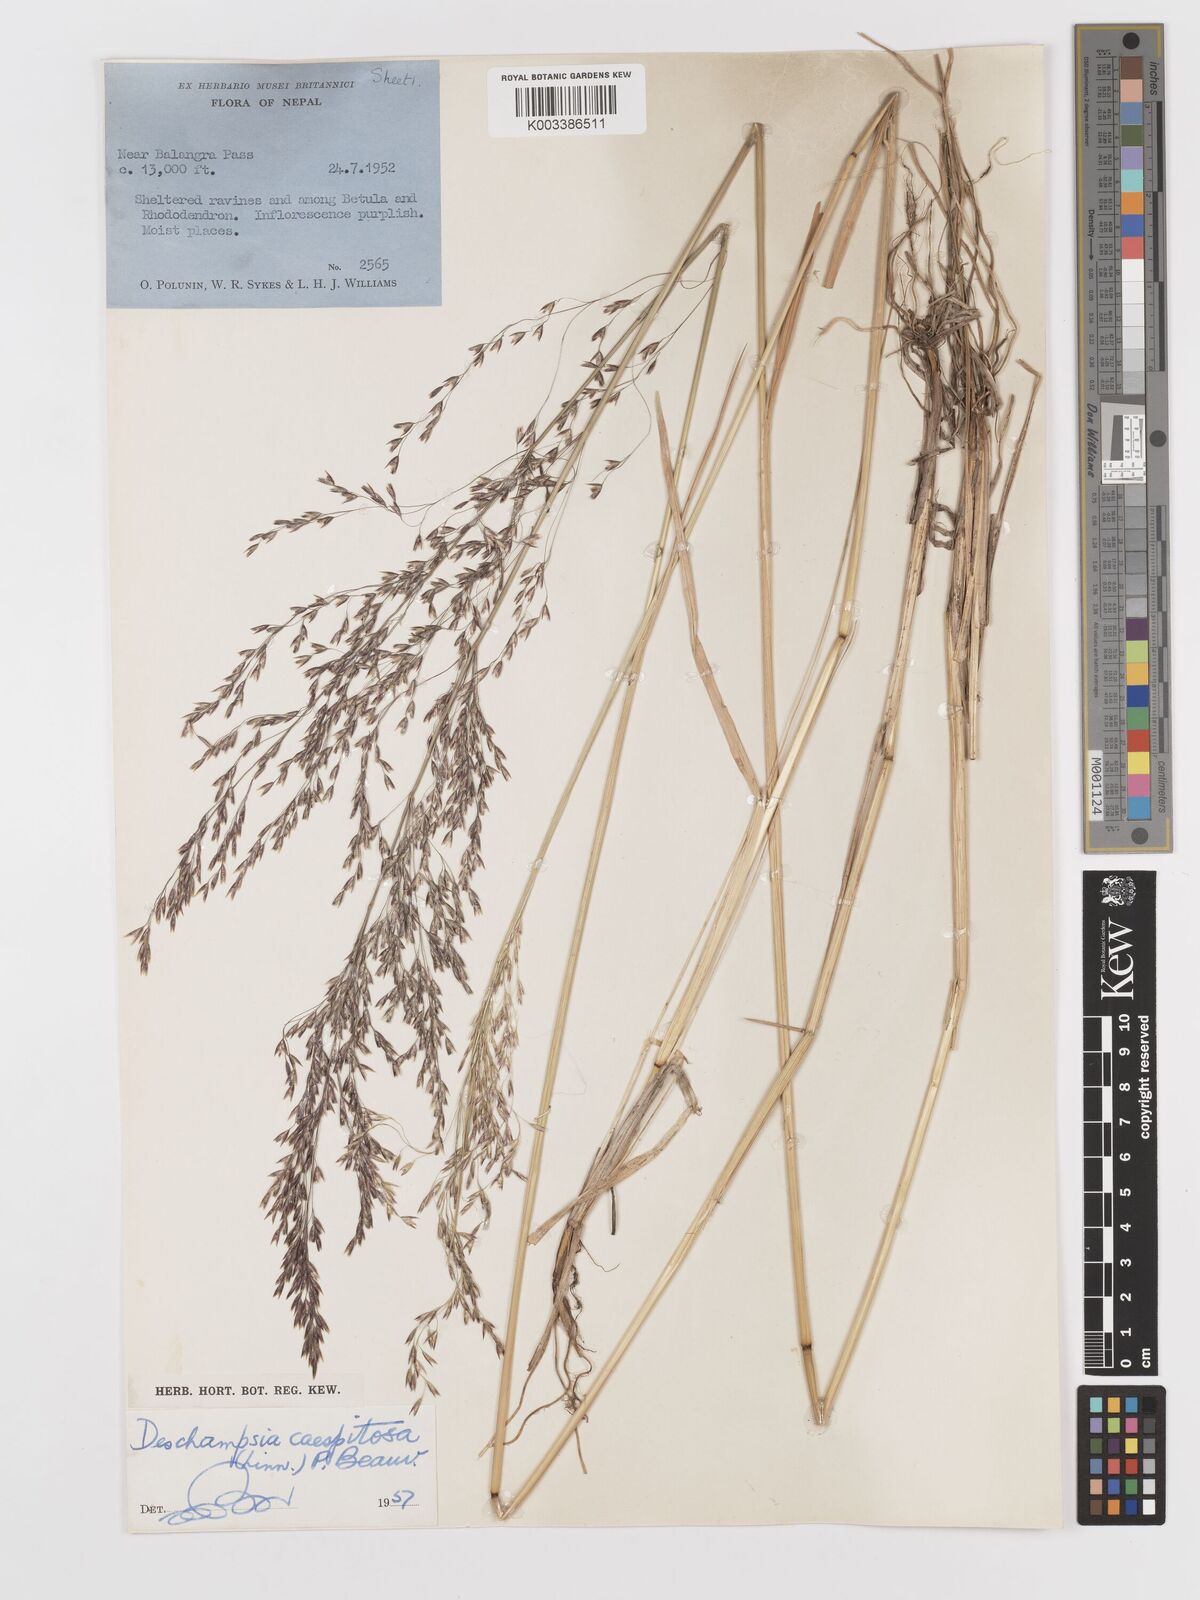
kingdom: Plantae
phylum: Tracheophyta
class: Liliopsida
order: Poales
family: Poaceae
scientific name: Poaceae
